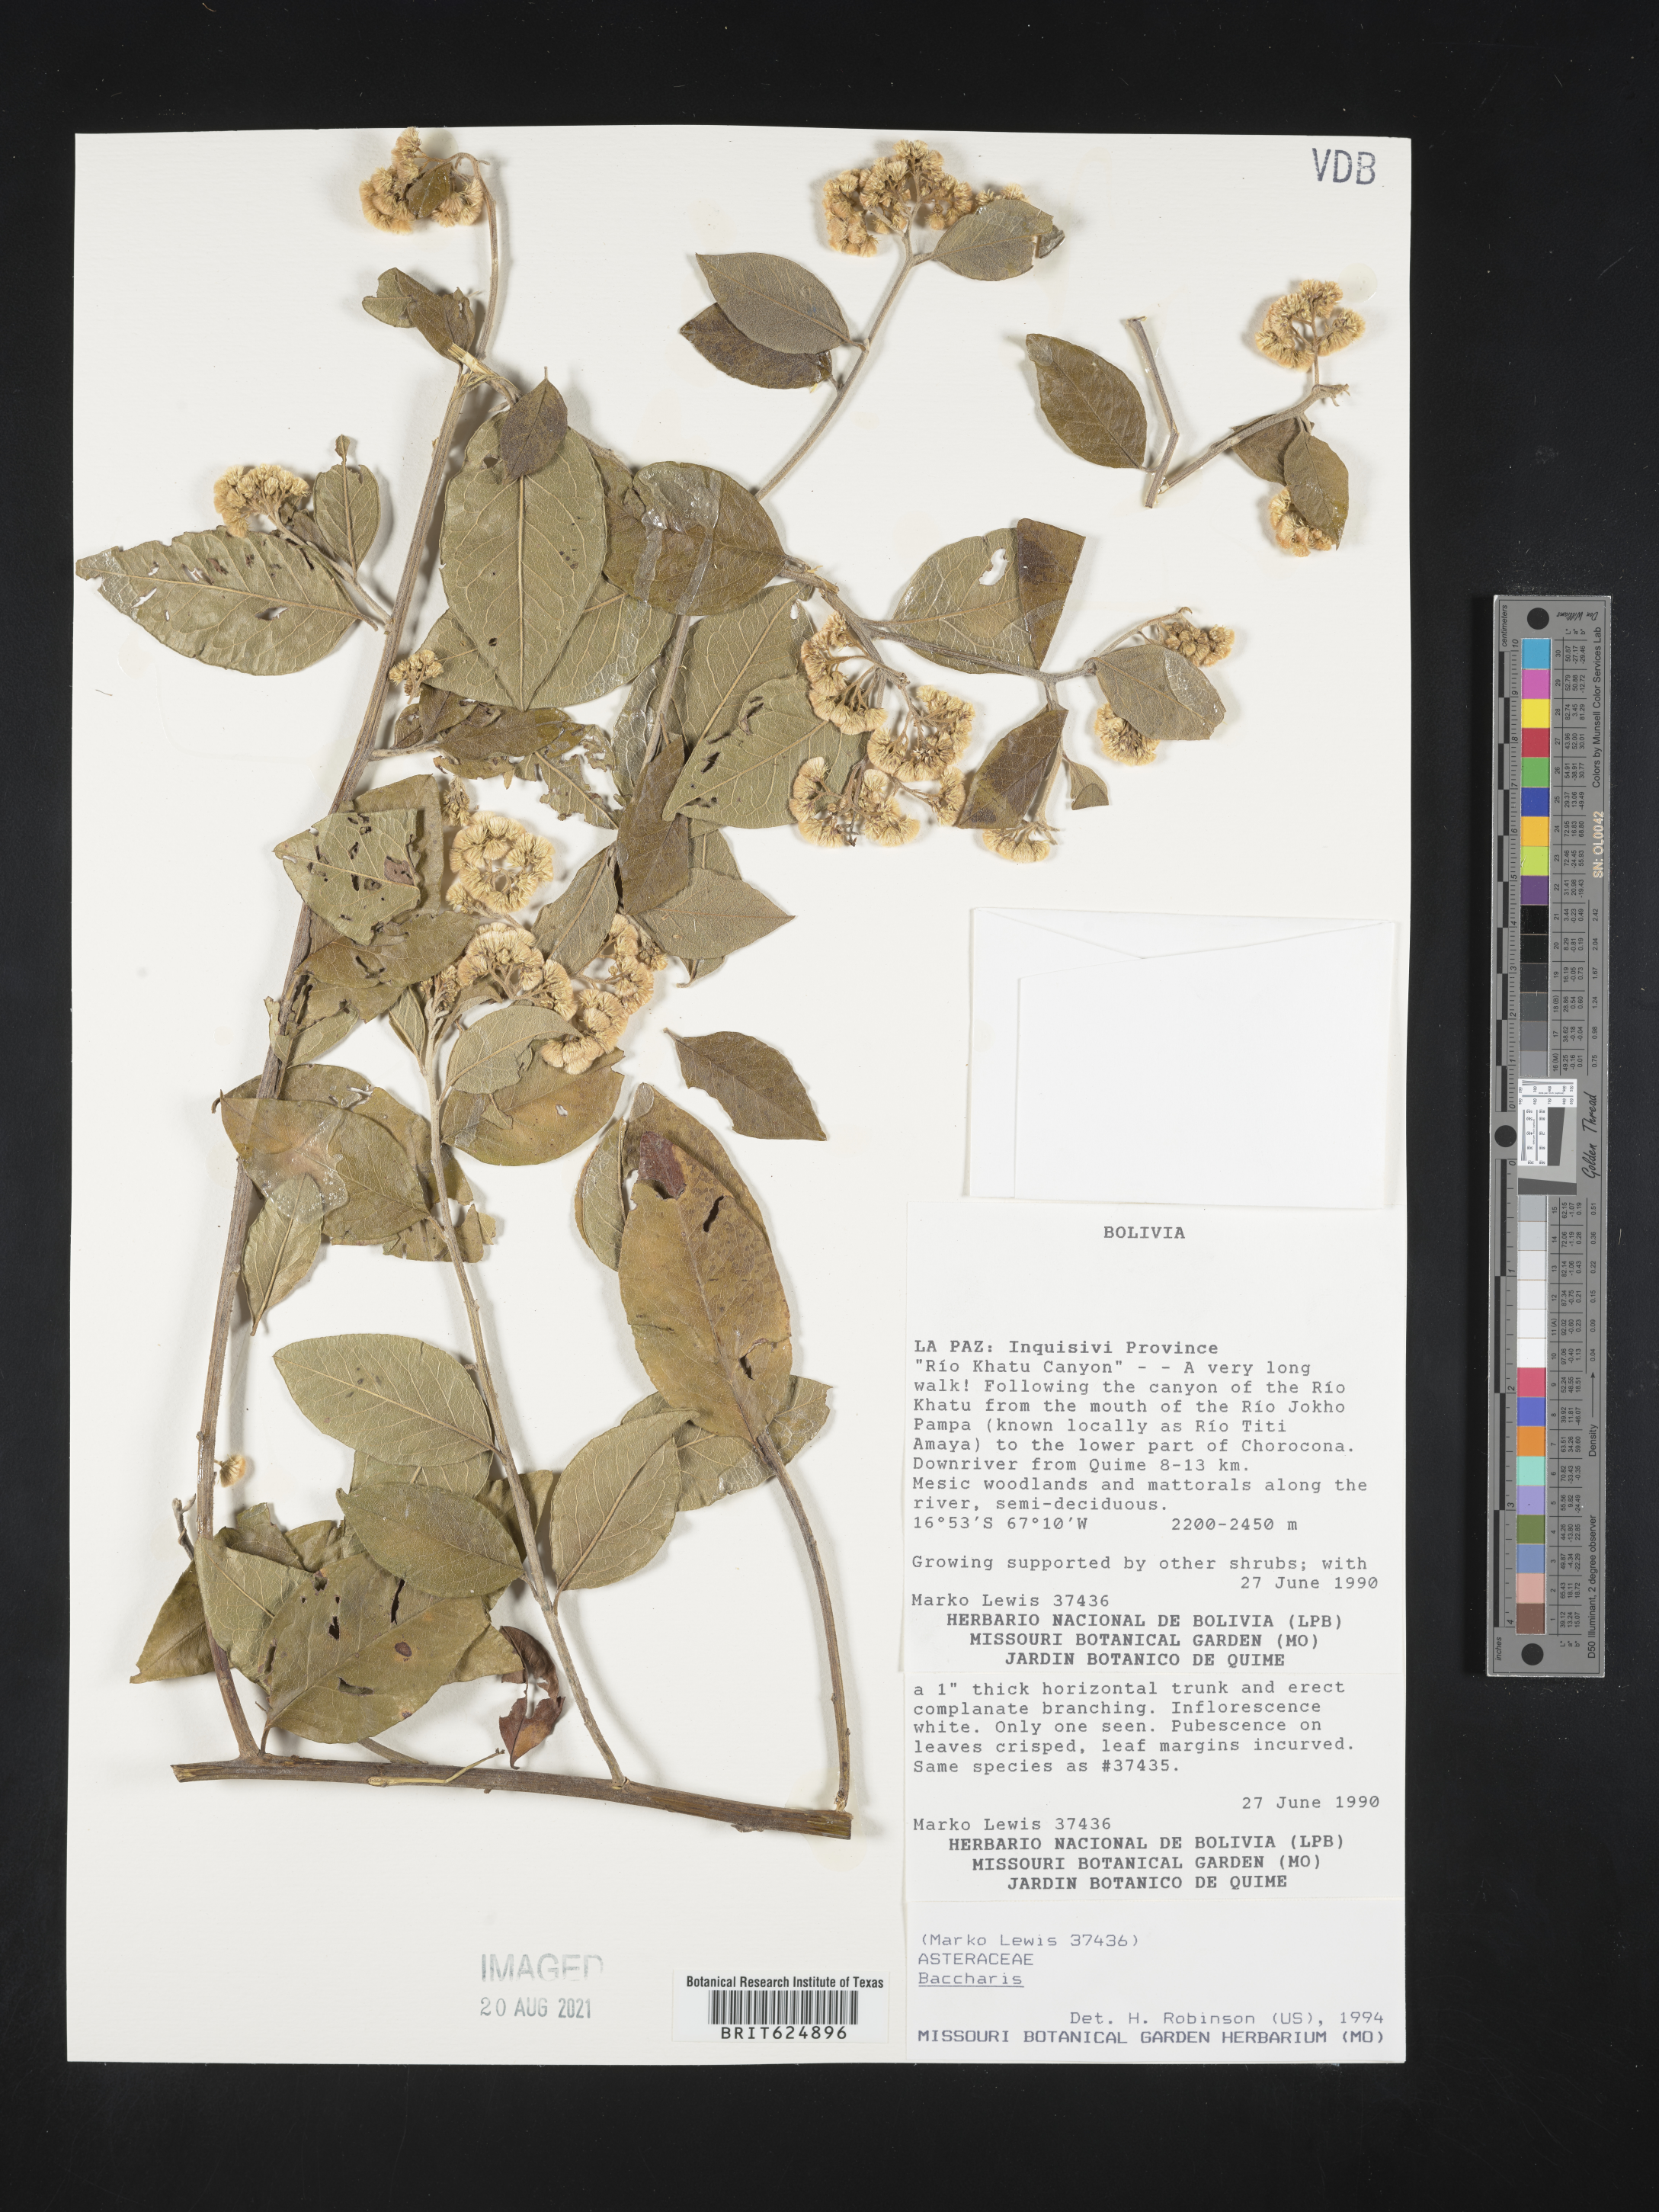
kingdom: Plantae
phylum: Tracheophyta
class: Magnoliopsida
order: Asterales
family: Asteraceae
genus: Baccharis
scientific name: Baccharis
